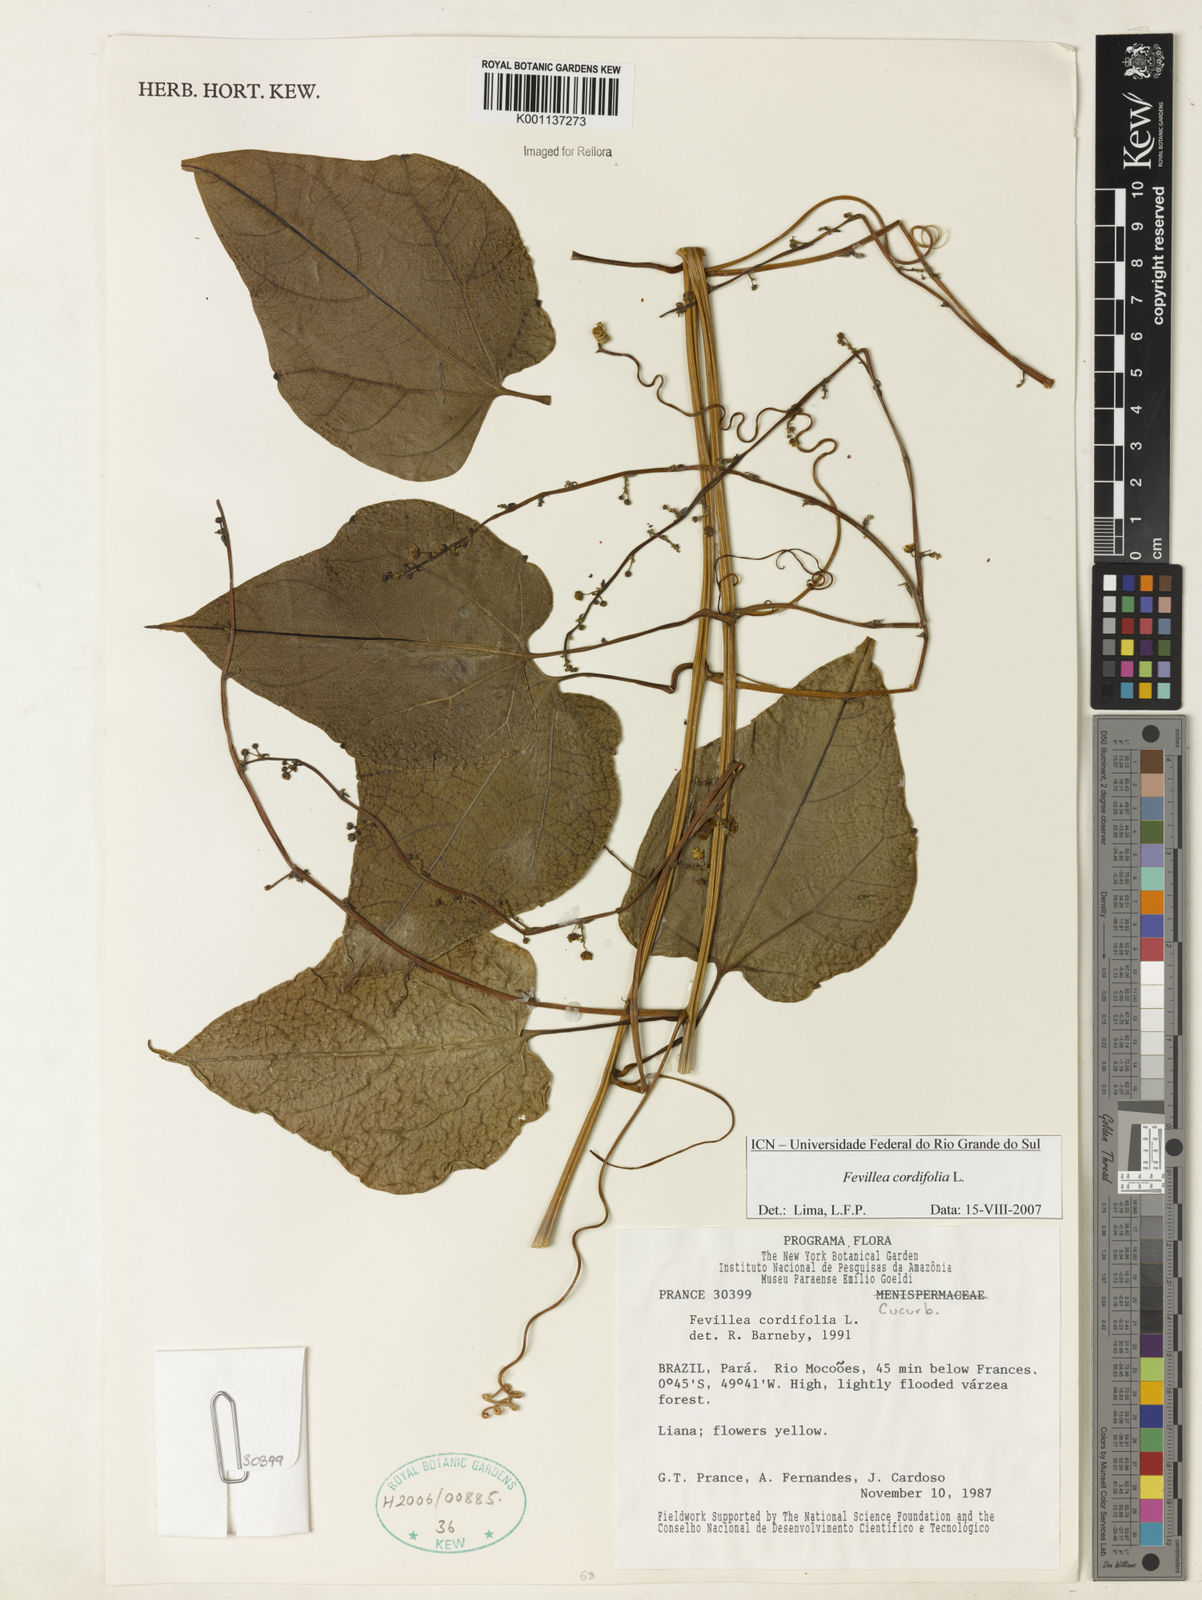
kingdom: Plantae
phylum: Tracheophyta
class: Magnoliopsida
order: Cucurbitales
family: Cucurbitaceae
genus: Fevillea
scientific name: Fevillea cordifolia
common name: Antidote-vine
